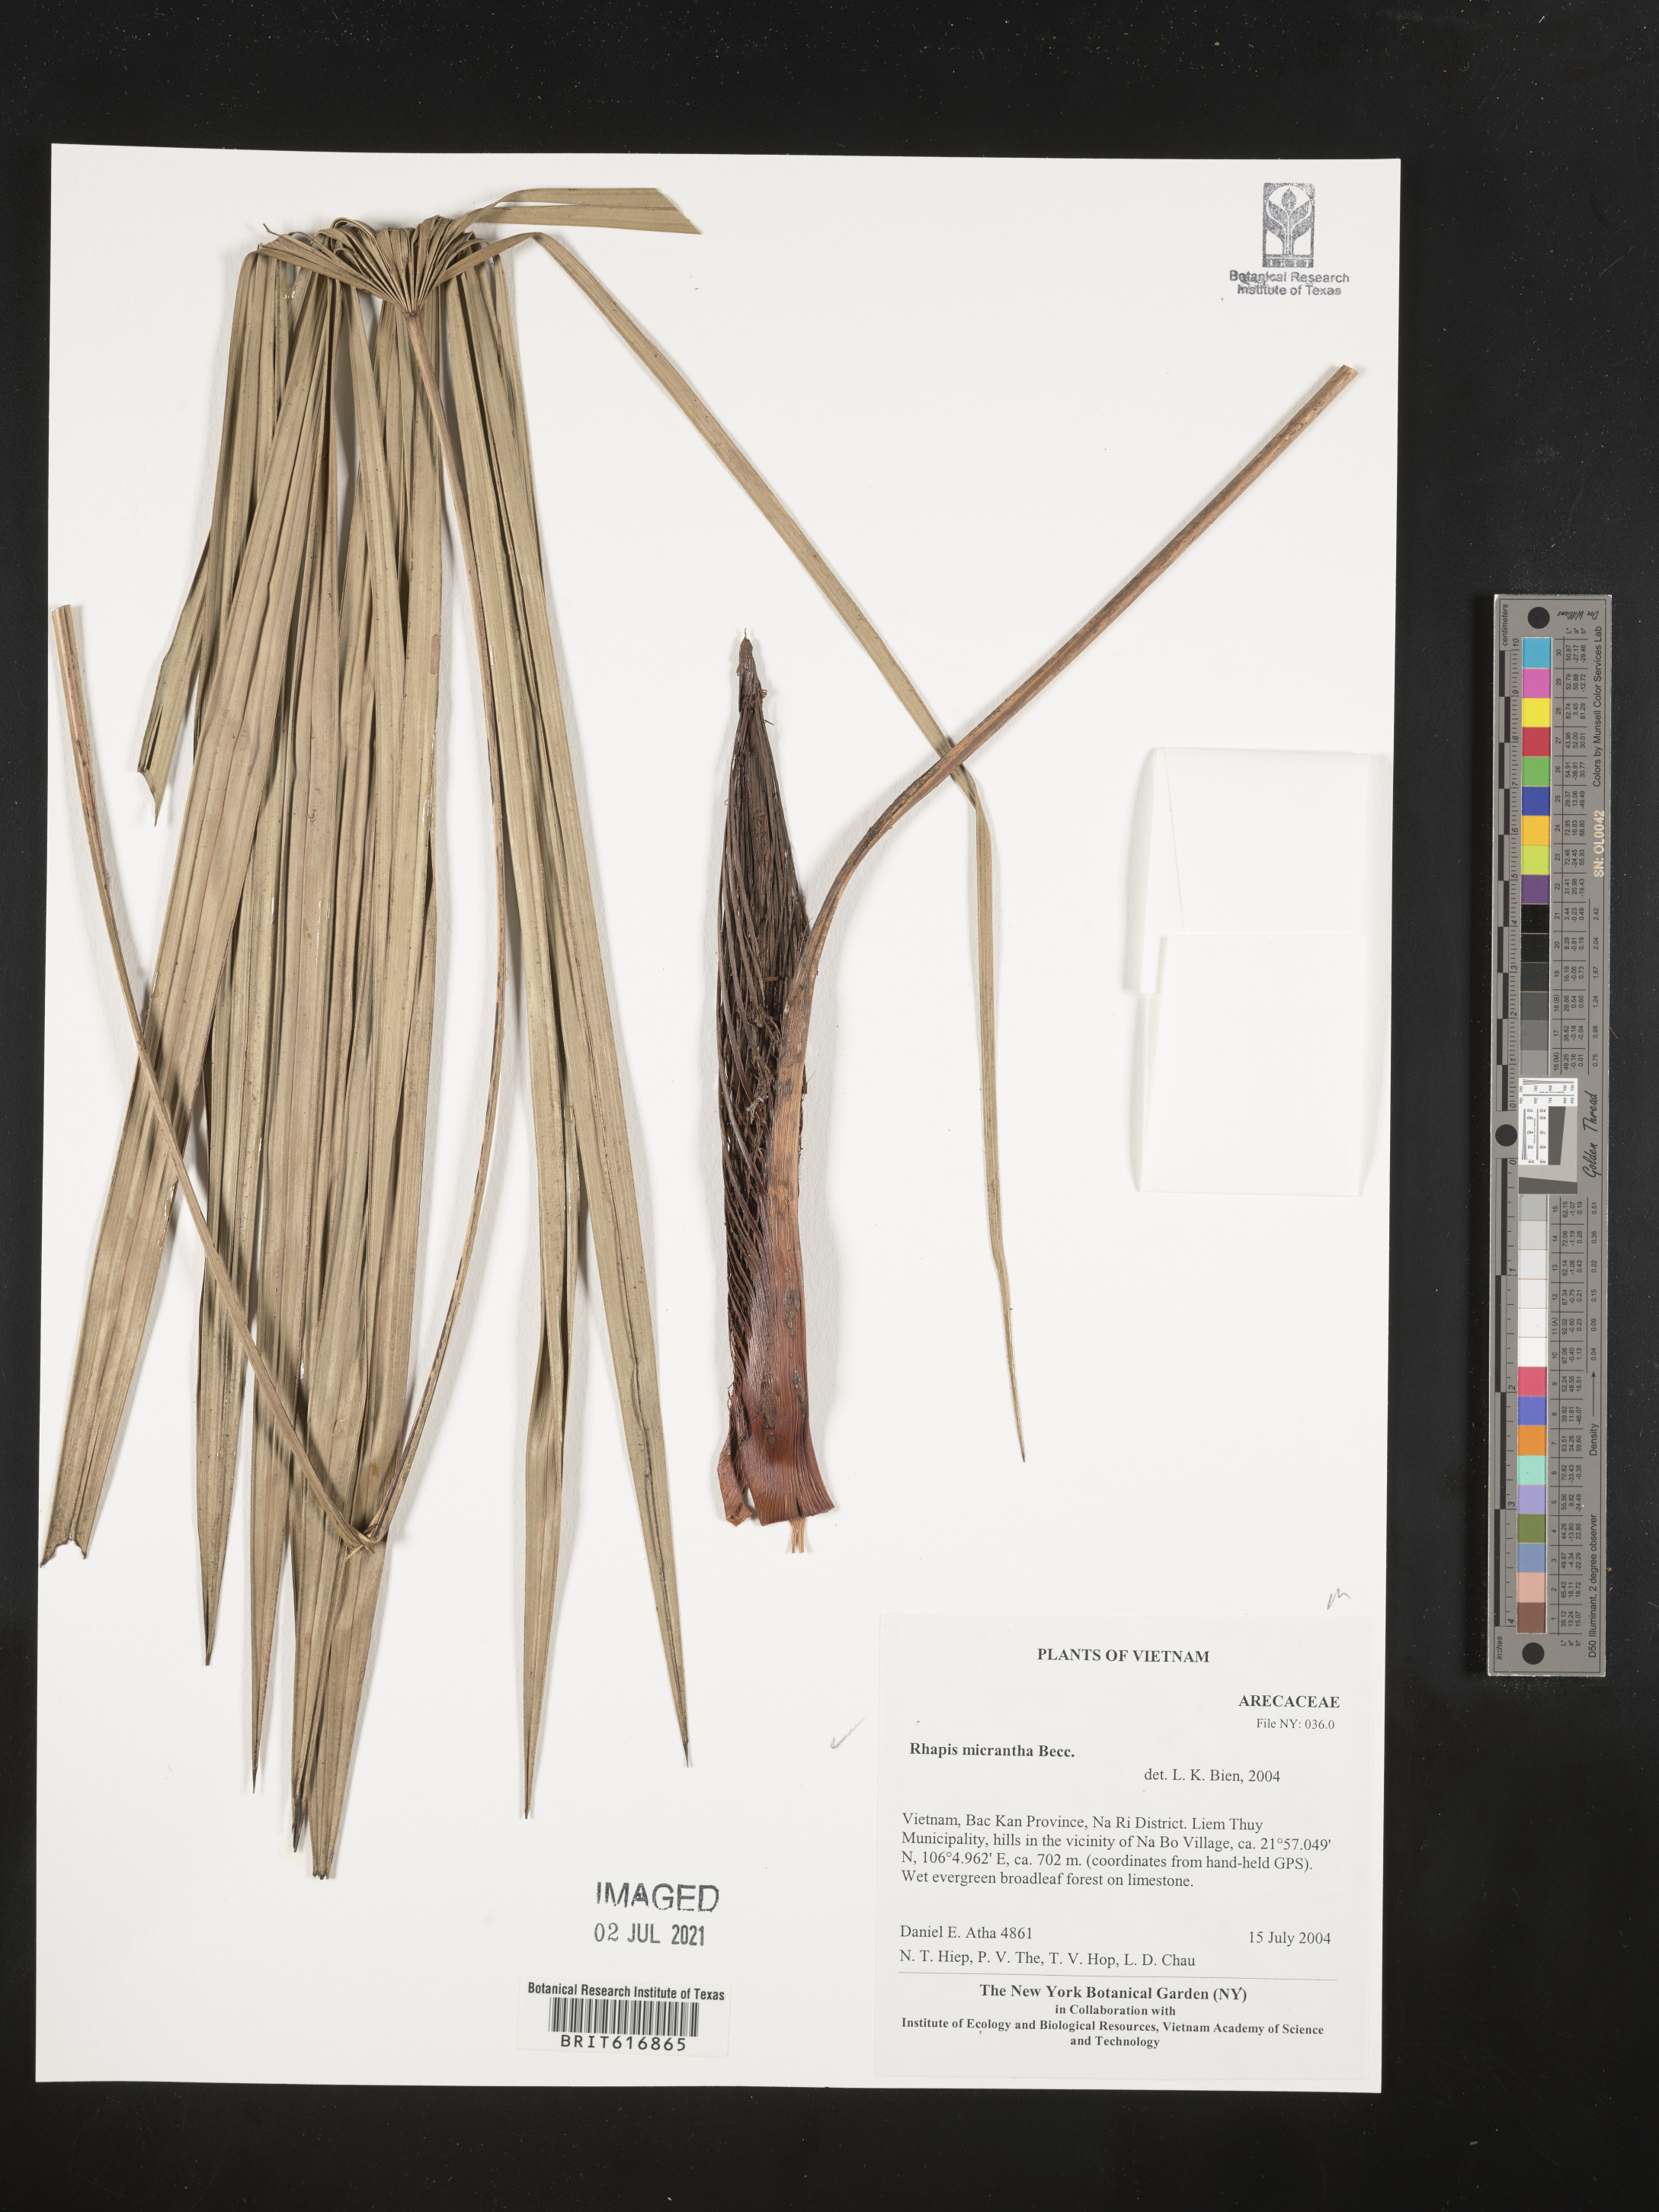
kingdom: Plantae
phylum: Tracheophyta
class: Liliopsida
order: Arecales
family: Arecaceae
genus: Rhapis
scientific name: Rhapis micrantha
